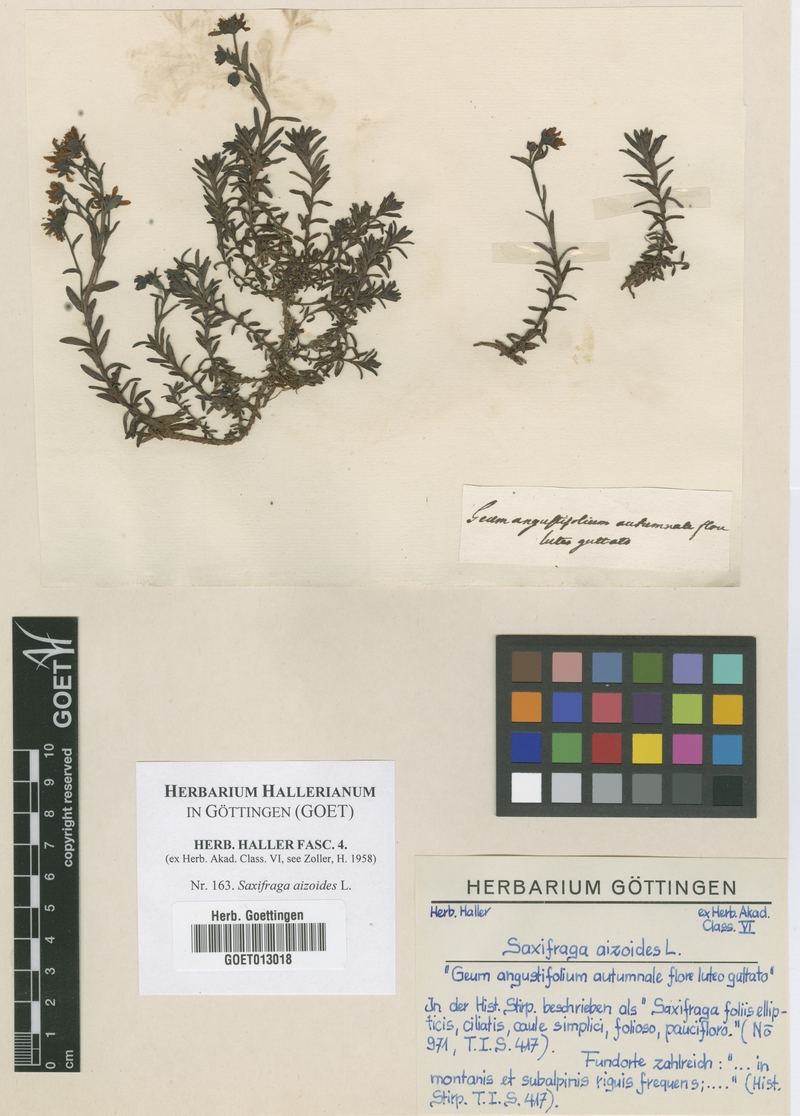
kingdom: Plantae
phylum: Tracheophyta
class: Magnoliopsida
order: Saxifragales
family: Saxifragaceae
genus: Saxifraga
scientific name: Saxifraga aizoides
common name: Yellow mountain saxifrage
